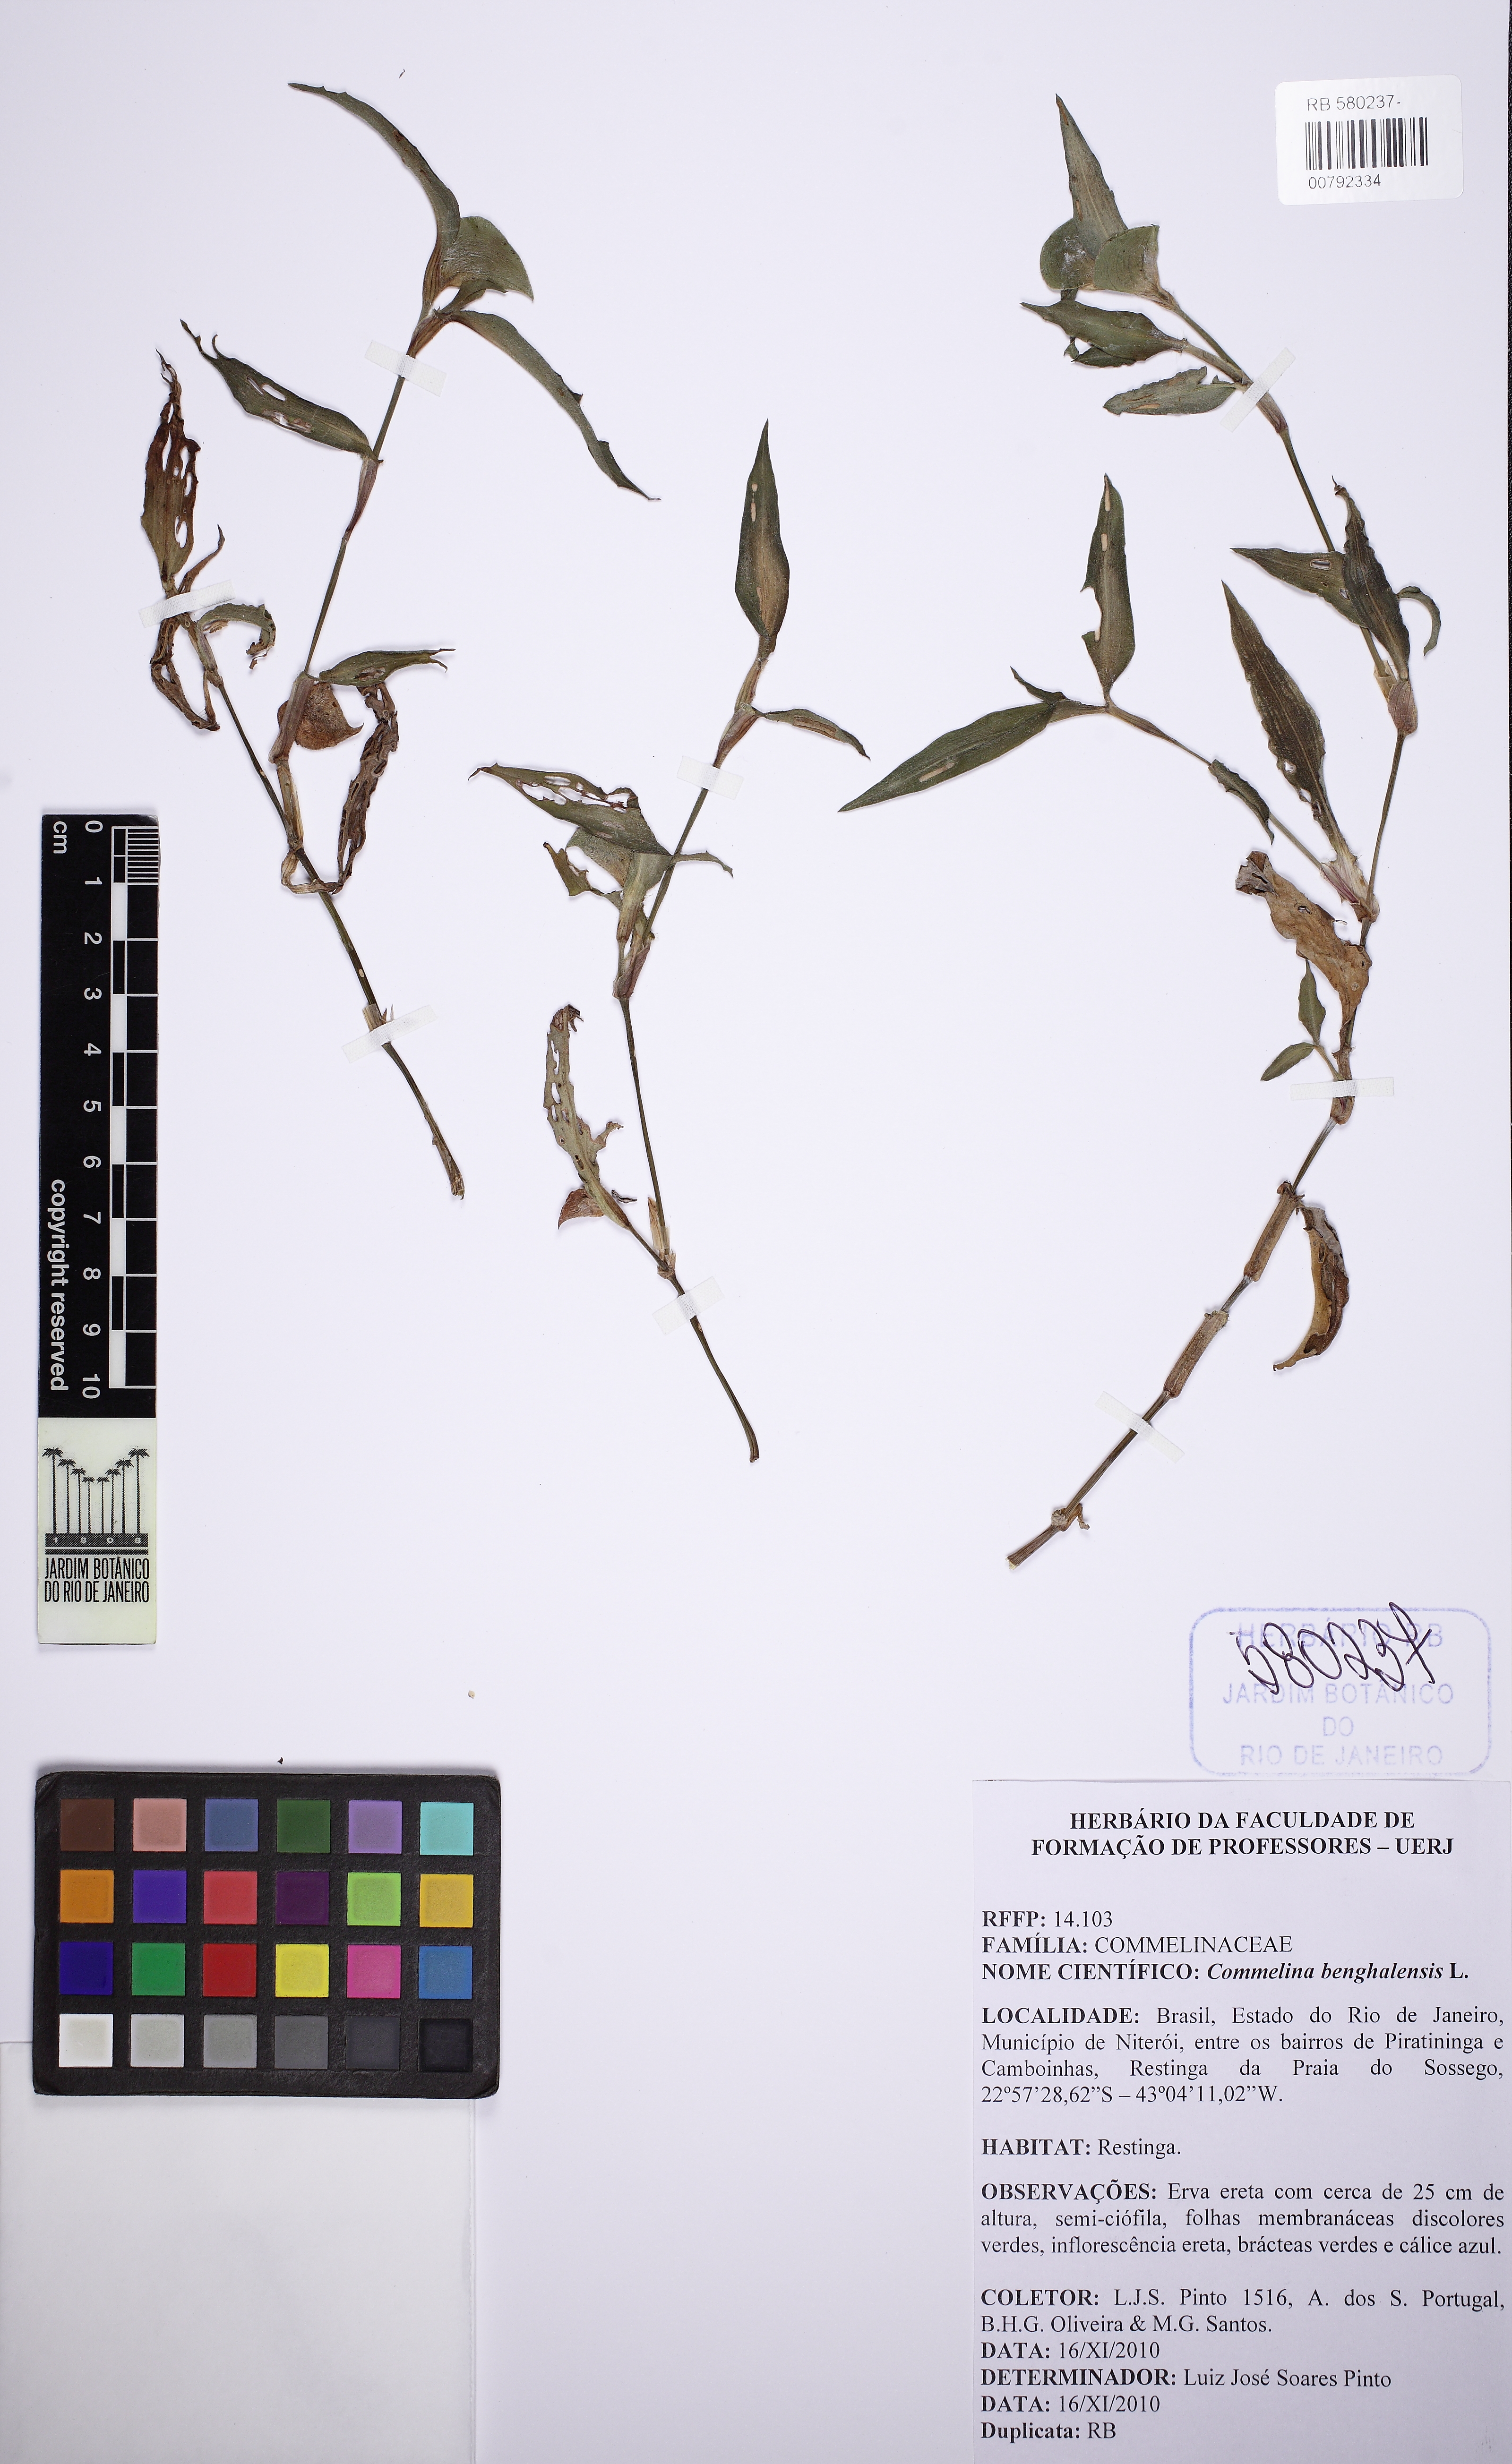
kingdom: Plantae
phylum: Tracheophyta
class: Liliopsida
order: Commelinales
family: Commelinaceae
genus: Commelina
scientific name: Commelina benghalensis
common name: Jio
